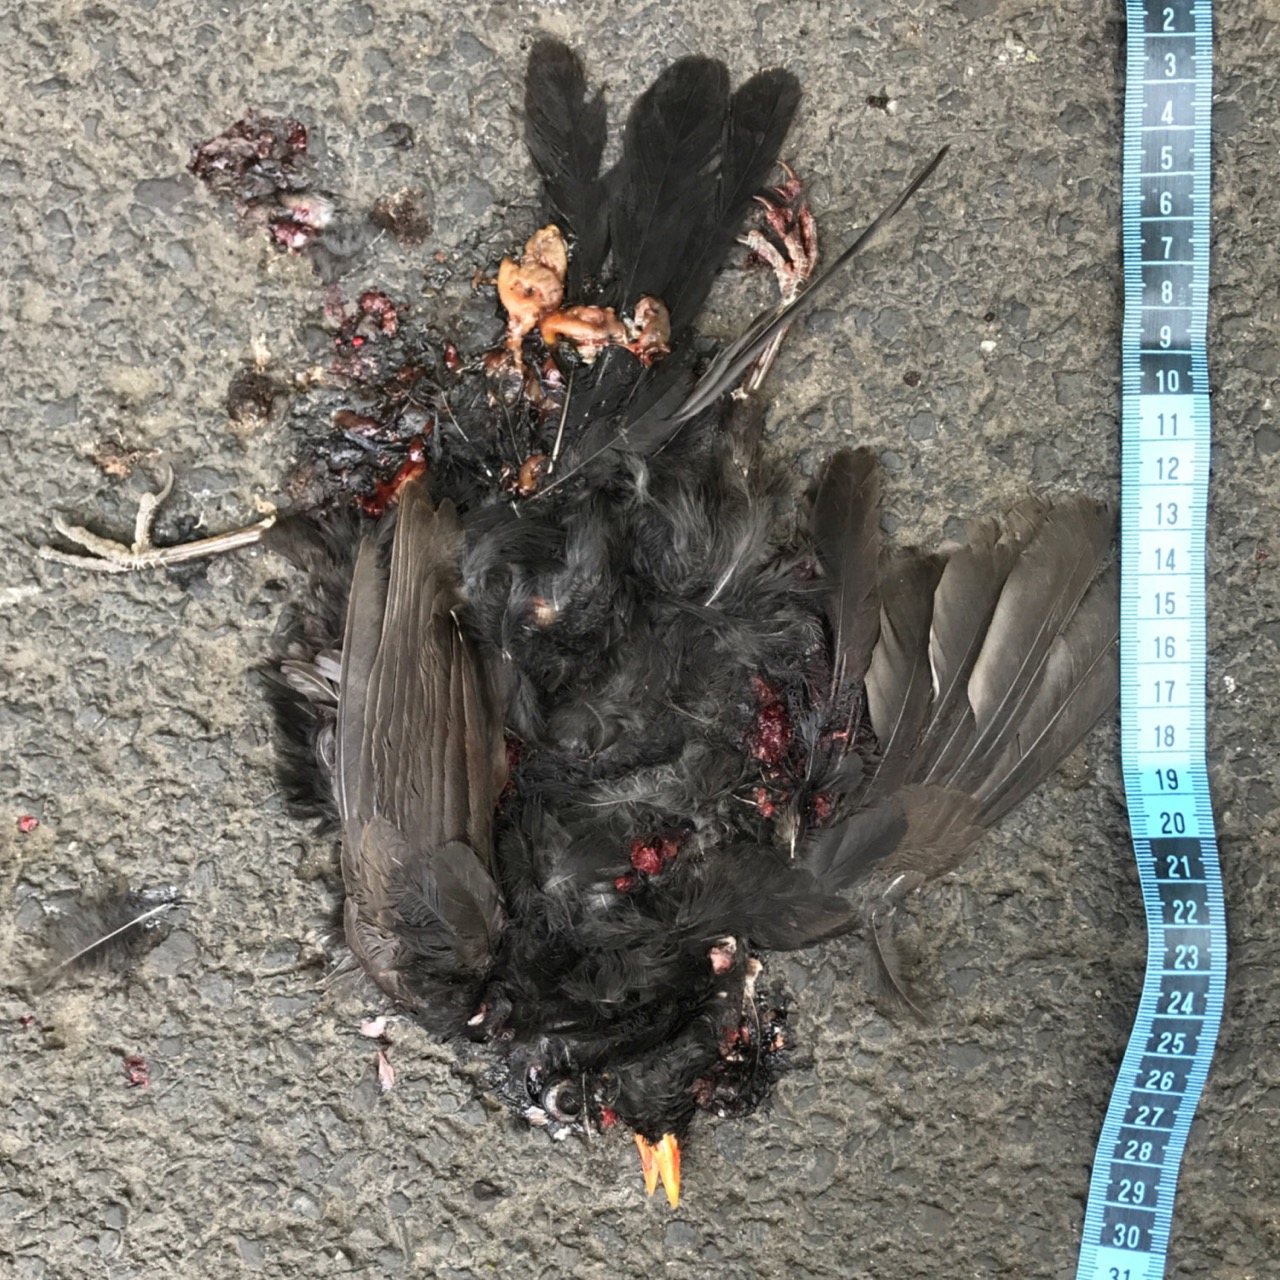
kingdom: Animalia
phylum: Chordata
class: Aves
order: Passeriformes
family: Turdidae
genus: Turdus
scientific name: Turdus merula
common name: Common blackbird
